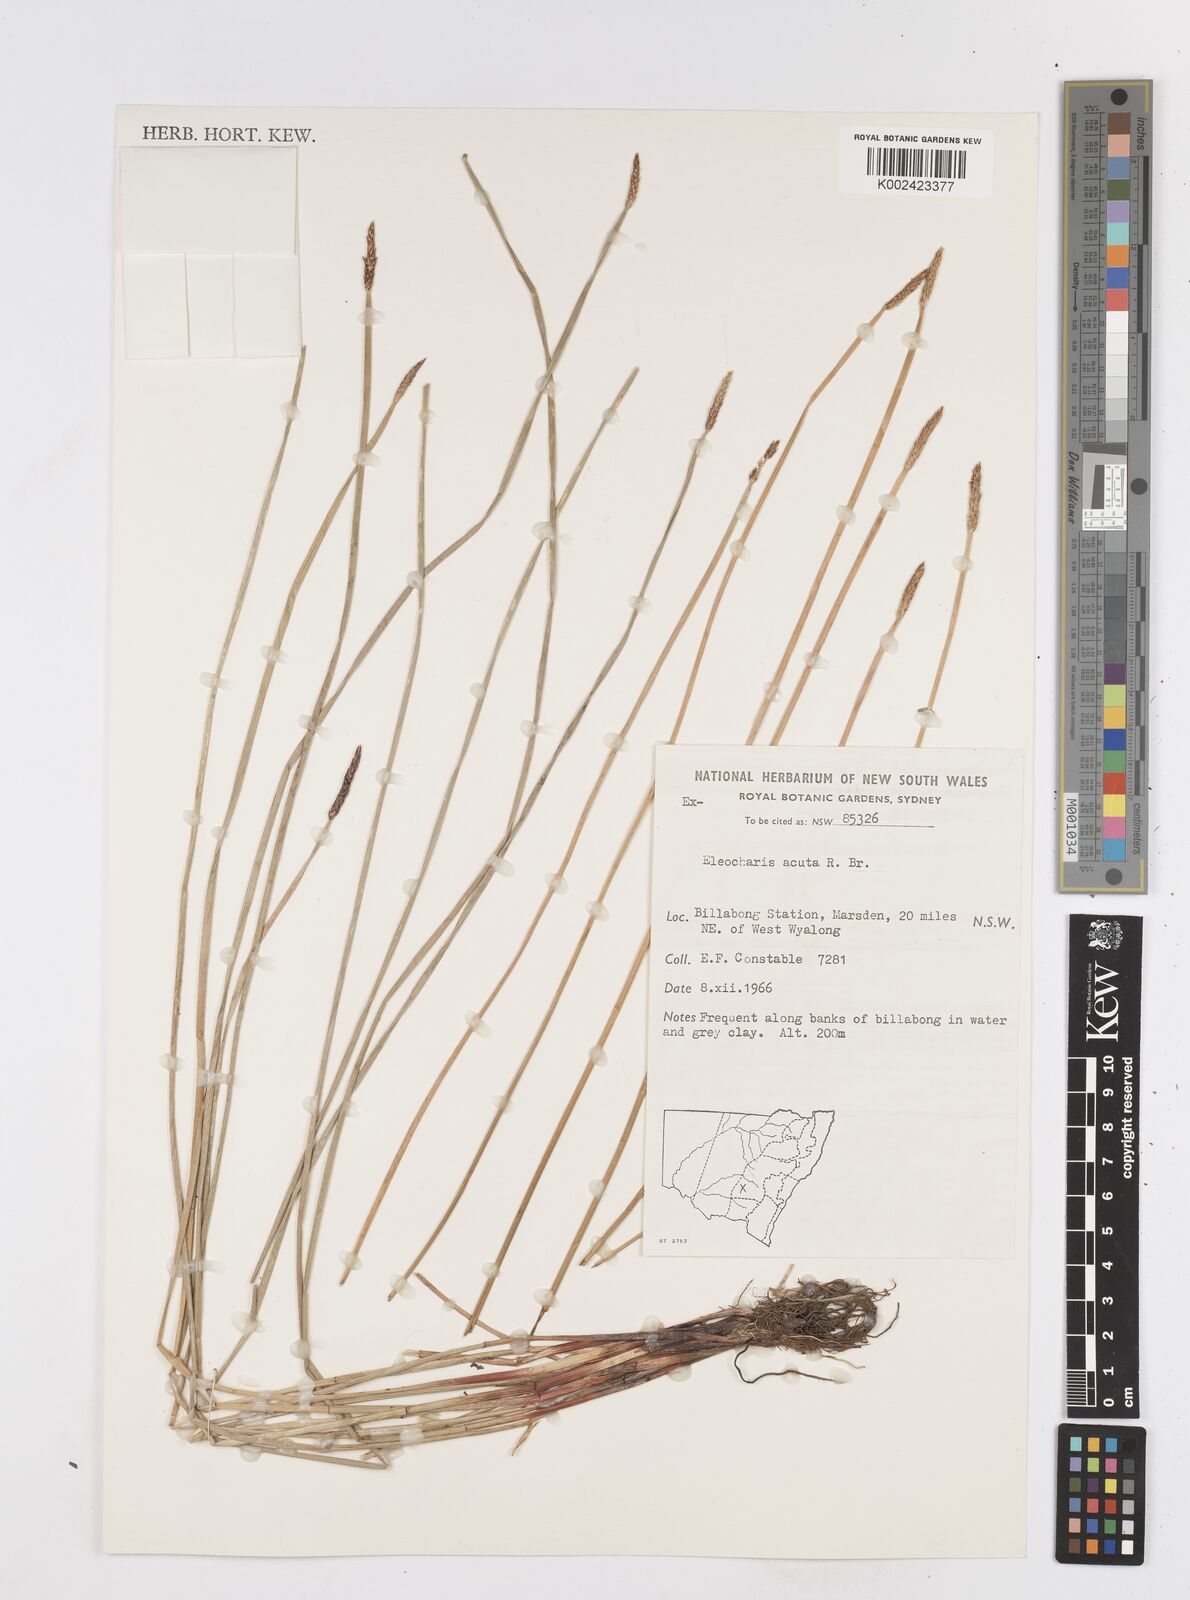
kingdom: Plantae
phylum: Tracheophyta
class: Liliopsida
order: Poales
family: Cyperaceae
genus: Eleocharis
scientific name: Eleocharis acuta
